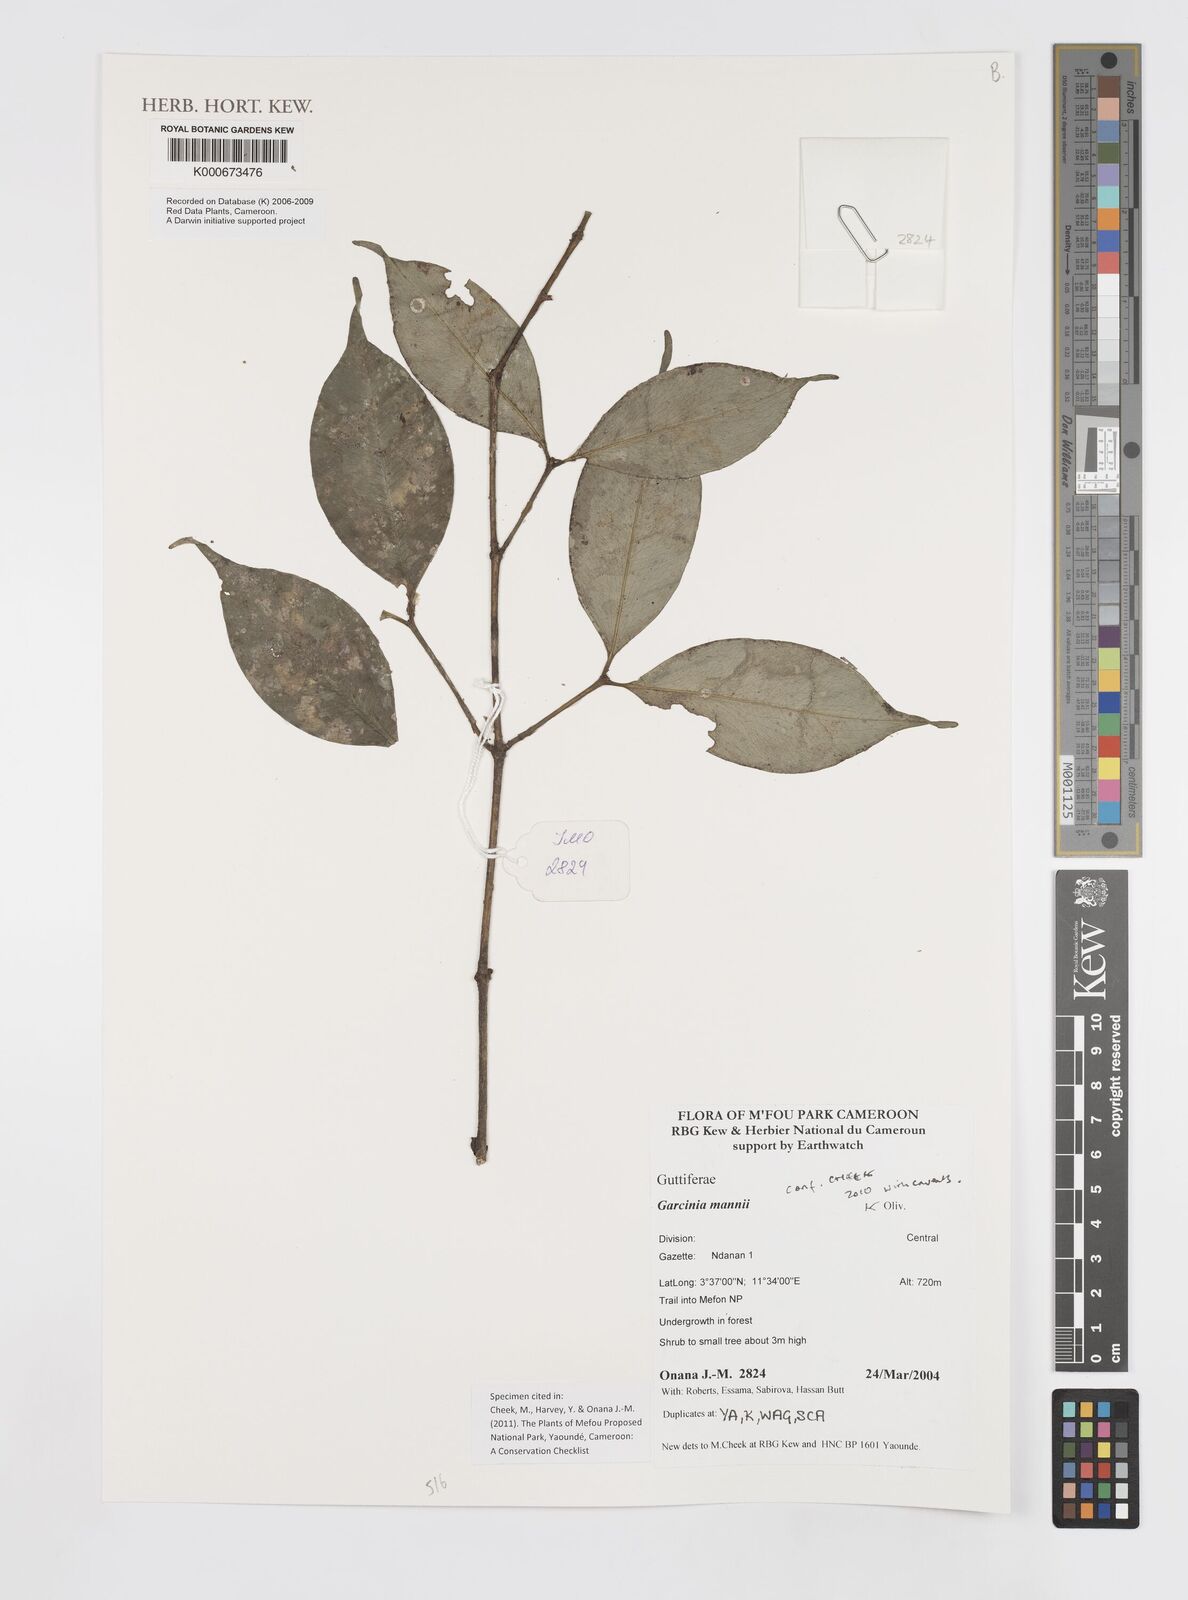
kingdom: Plantae
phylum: Tracheophyta
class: Magnoliopsida
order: Malpighiales
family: Clusiaceae
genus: Garcinia
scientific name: Garcinia mannii
